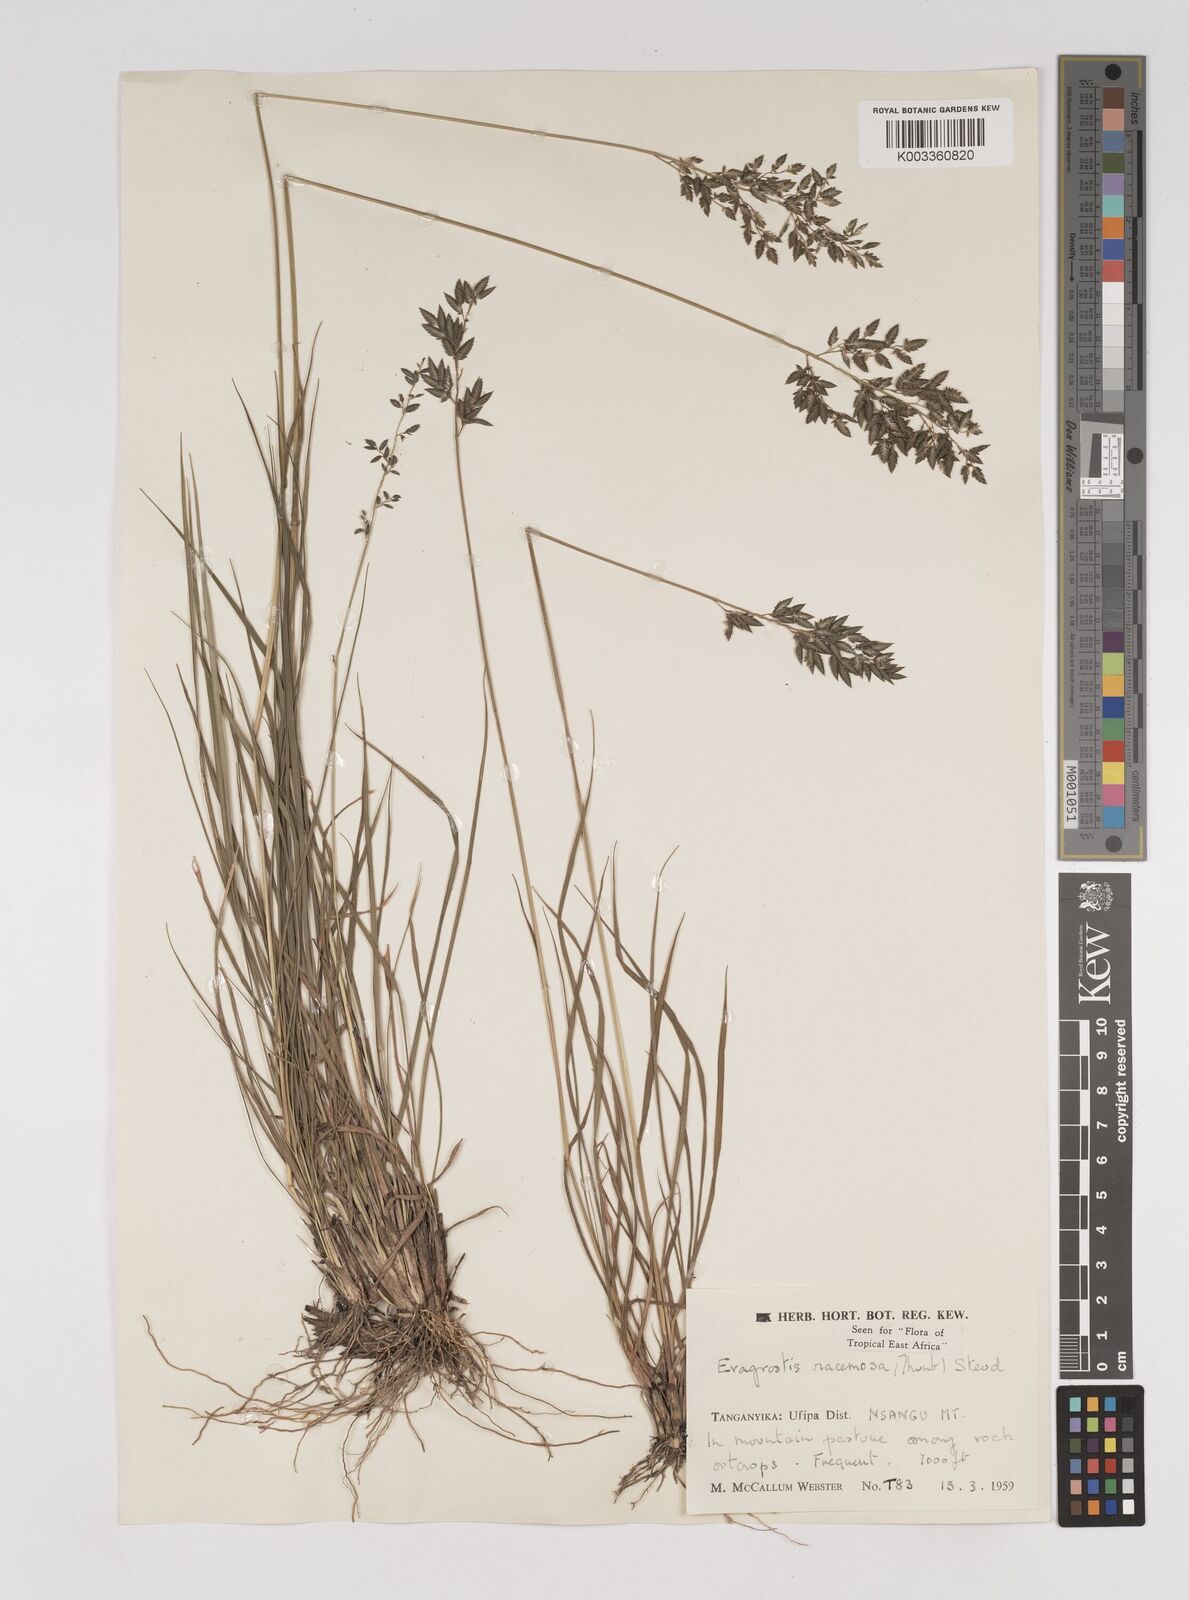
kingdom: Plantae
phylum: Tracheophyta
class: Liliopsida
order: Poales
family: Poaceae
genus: Eragrostis
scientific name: Eragrostis racemosa
